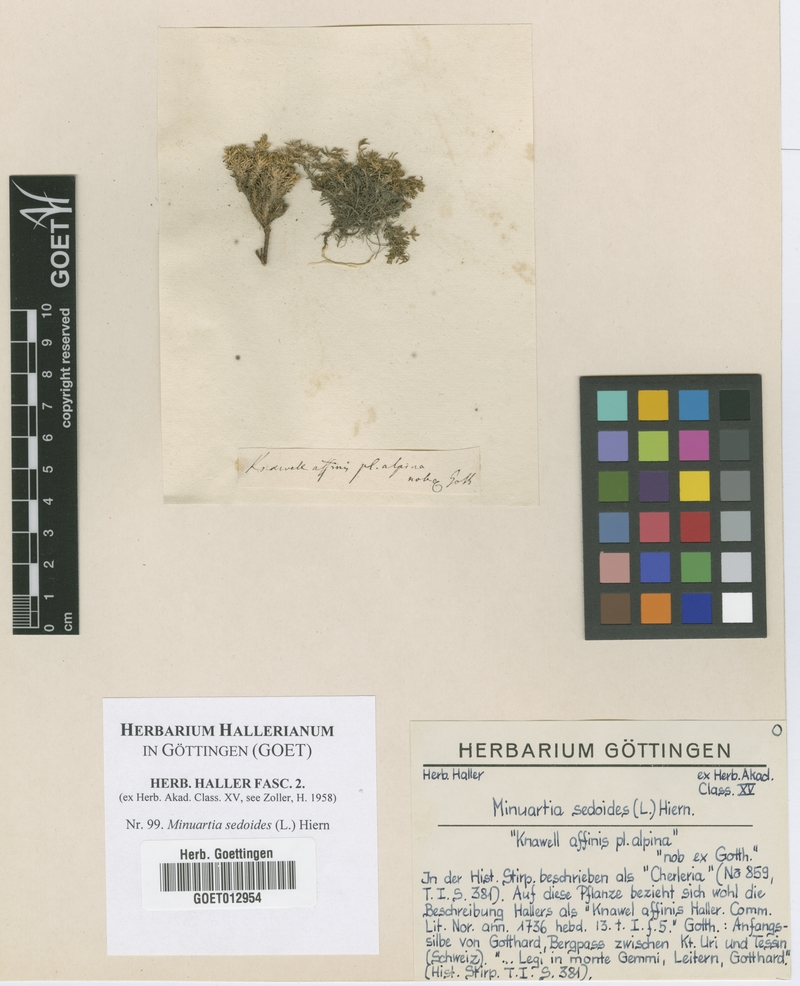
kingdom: Plantae
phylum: Tracheophyta
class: Magnoliopsida
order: Caryophyllales
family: Caryophyllaceae
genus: Cherleria
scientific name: Cherleria sedoides
